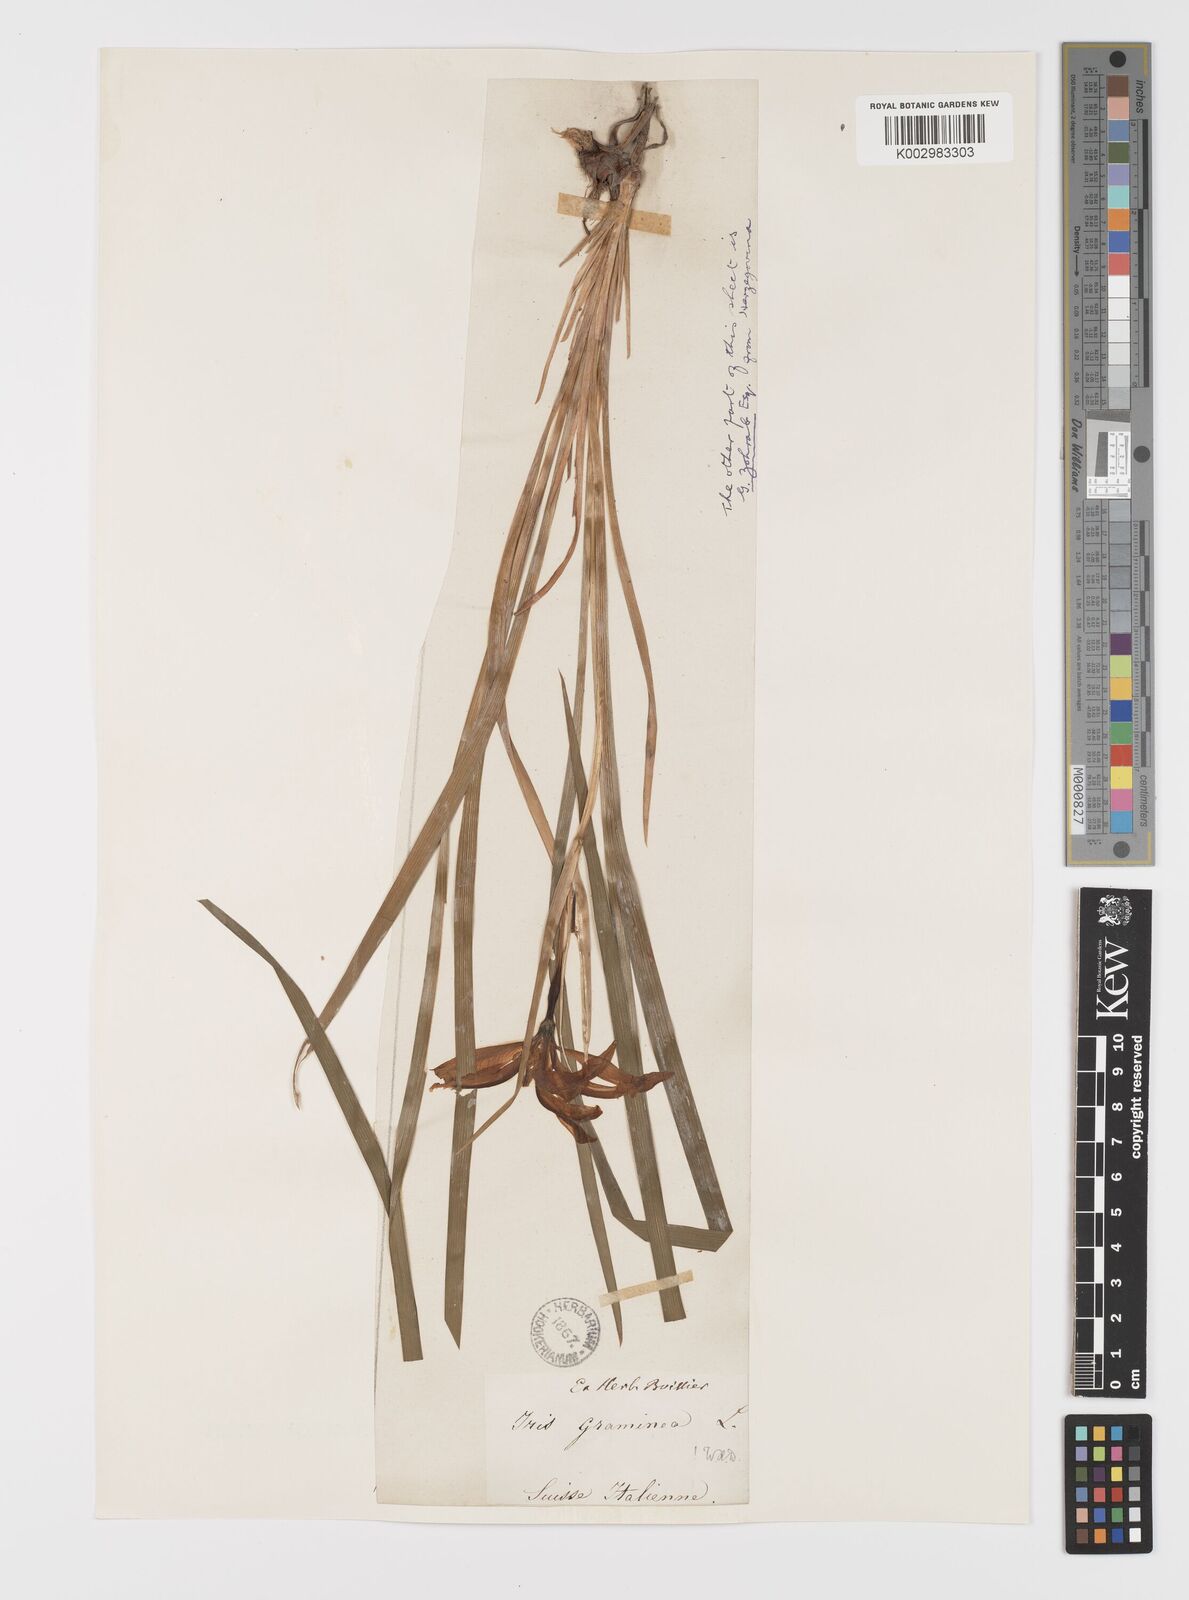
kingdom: Plantae
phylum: Tracheophyta
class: Liliopsida
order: Asparagales
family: Iridaceae
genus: Iris
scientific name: Iris graminea
